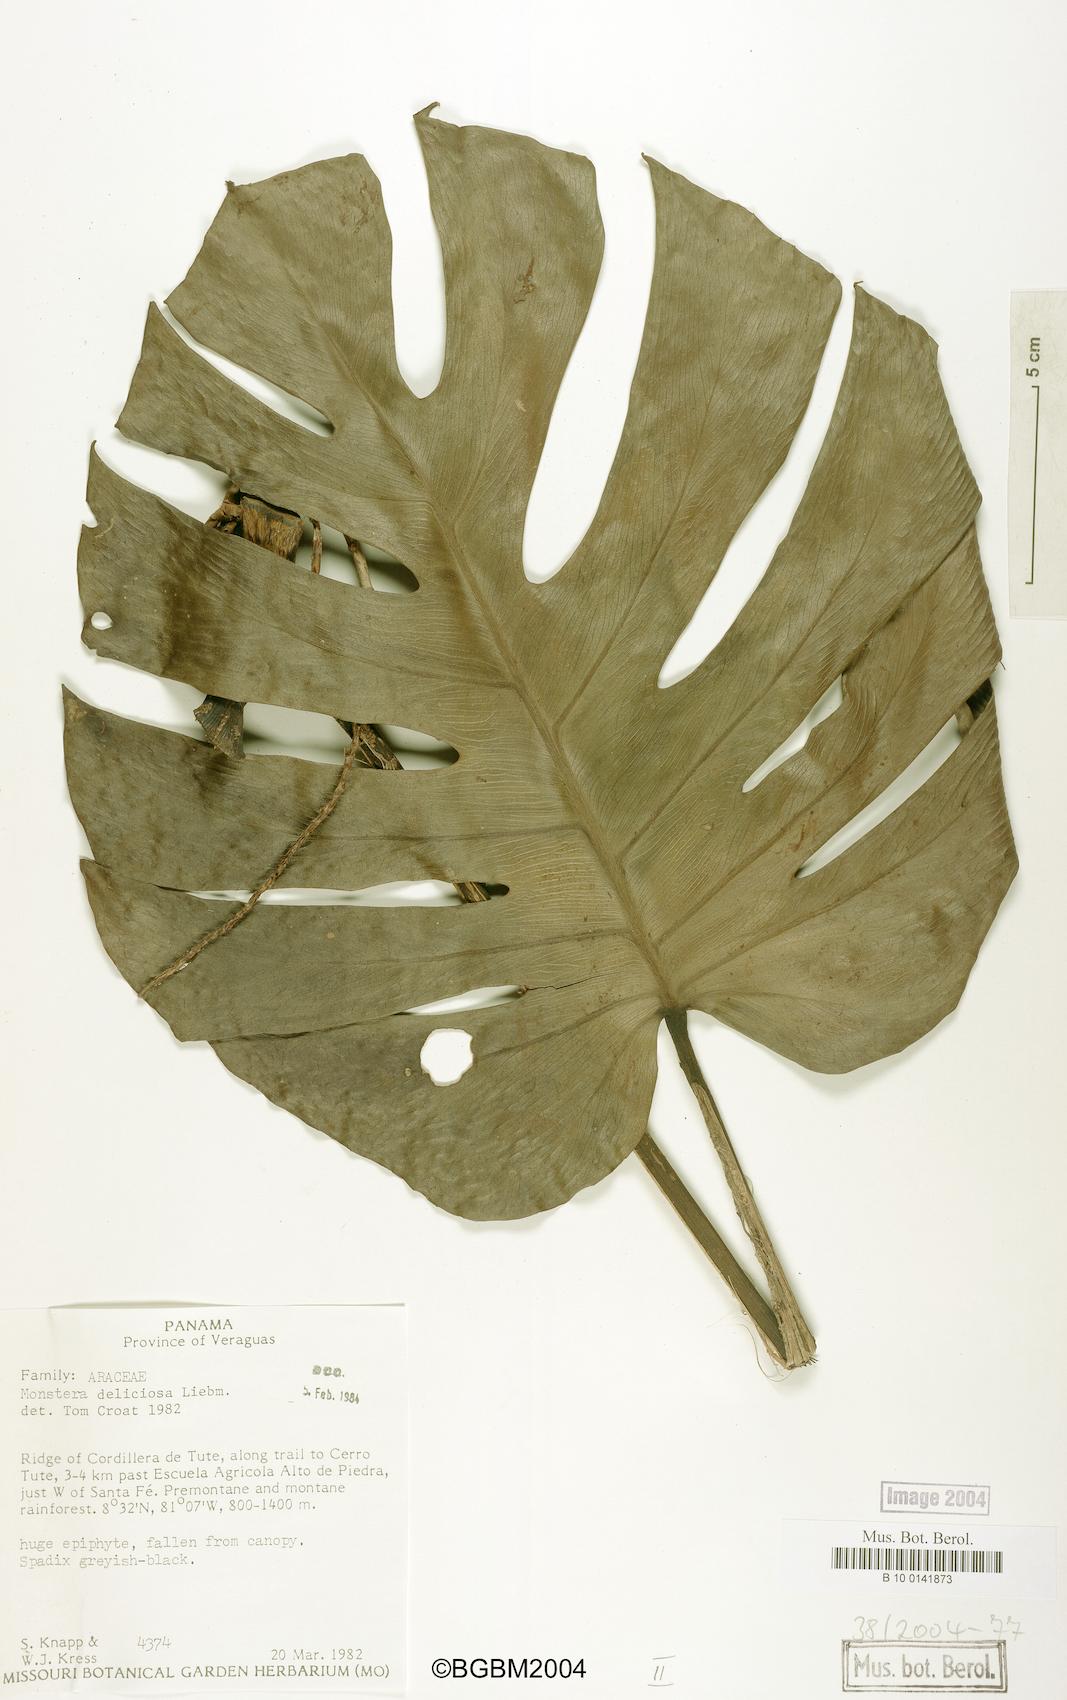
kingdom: Plantae
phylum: Tracheophyta
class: Liliopsida
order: Alismatales
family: Araceae
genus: Monstera
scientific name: Monstera deliciosa
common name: Cut-leaf-philodendron
